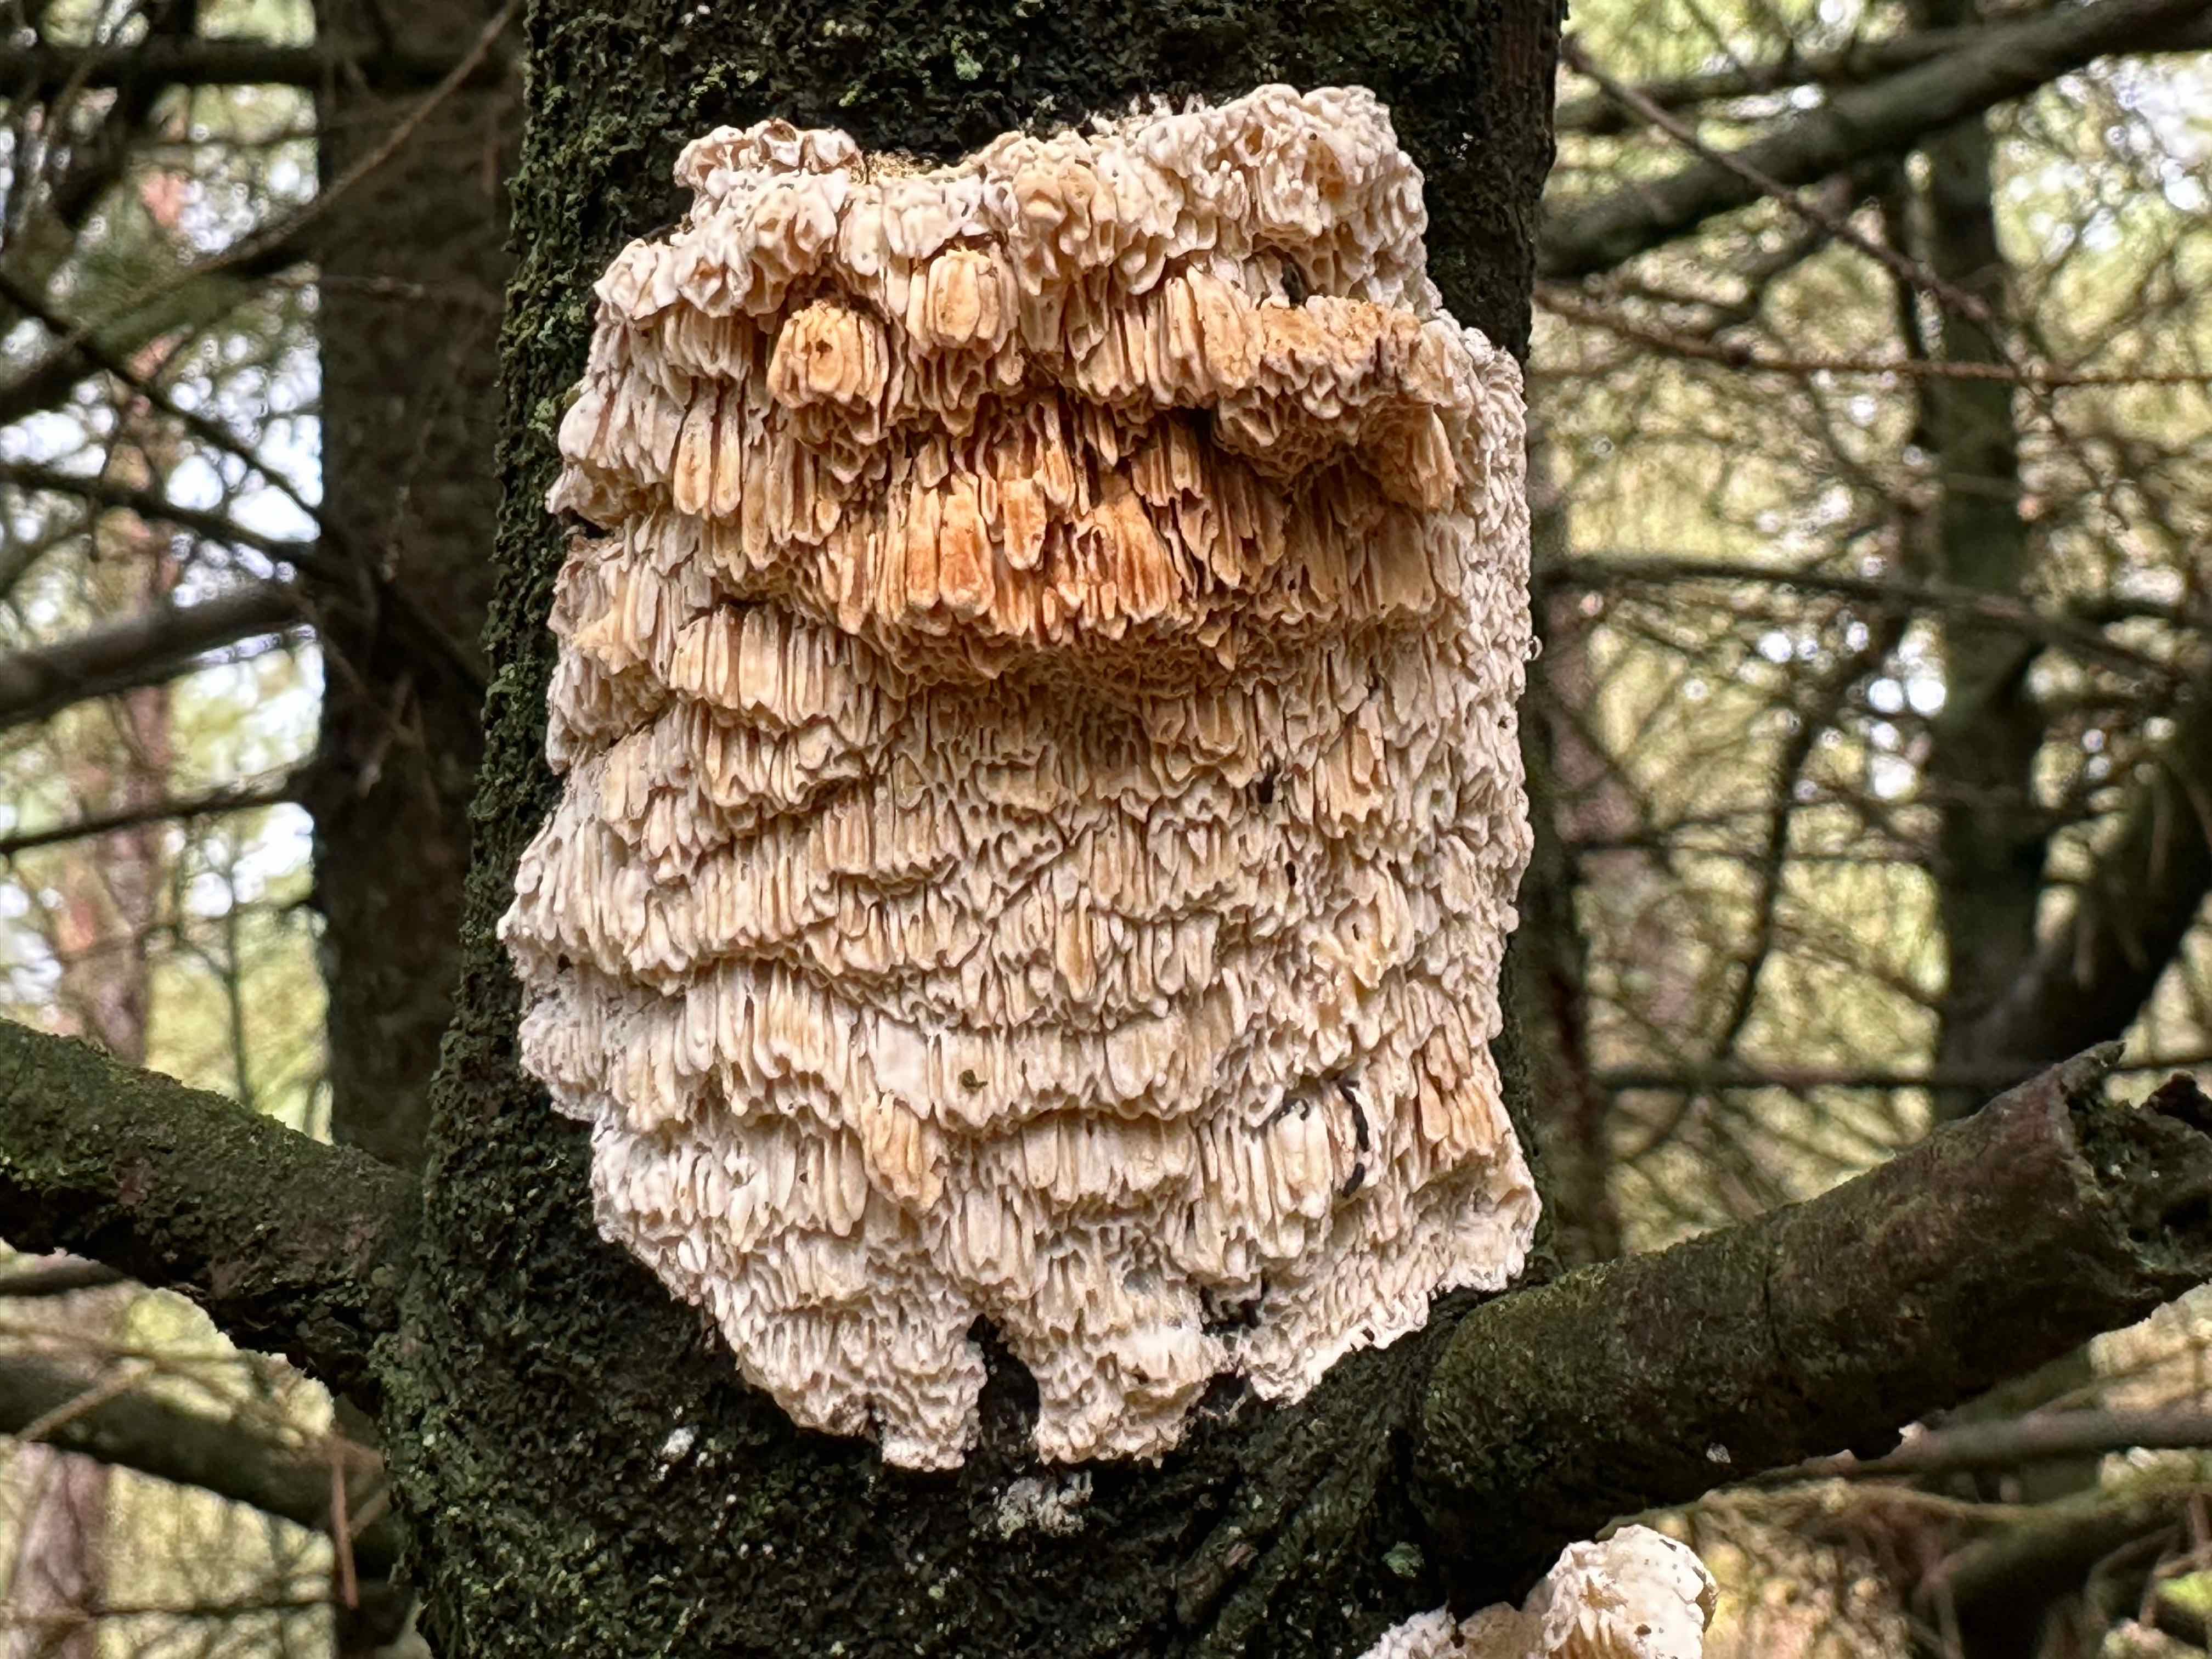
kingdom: Fungi
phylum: Basidiomycota
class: Agaricomycetes
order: Polyporales
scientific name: Polyporales
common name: poresvampordenen
